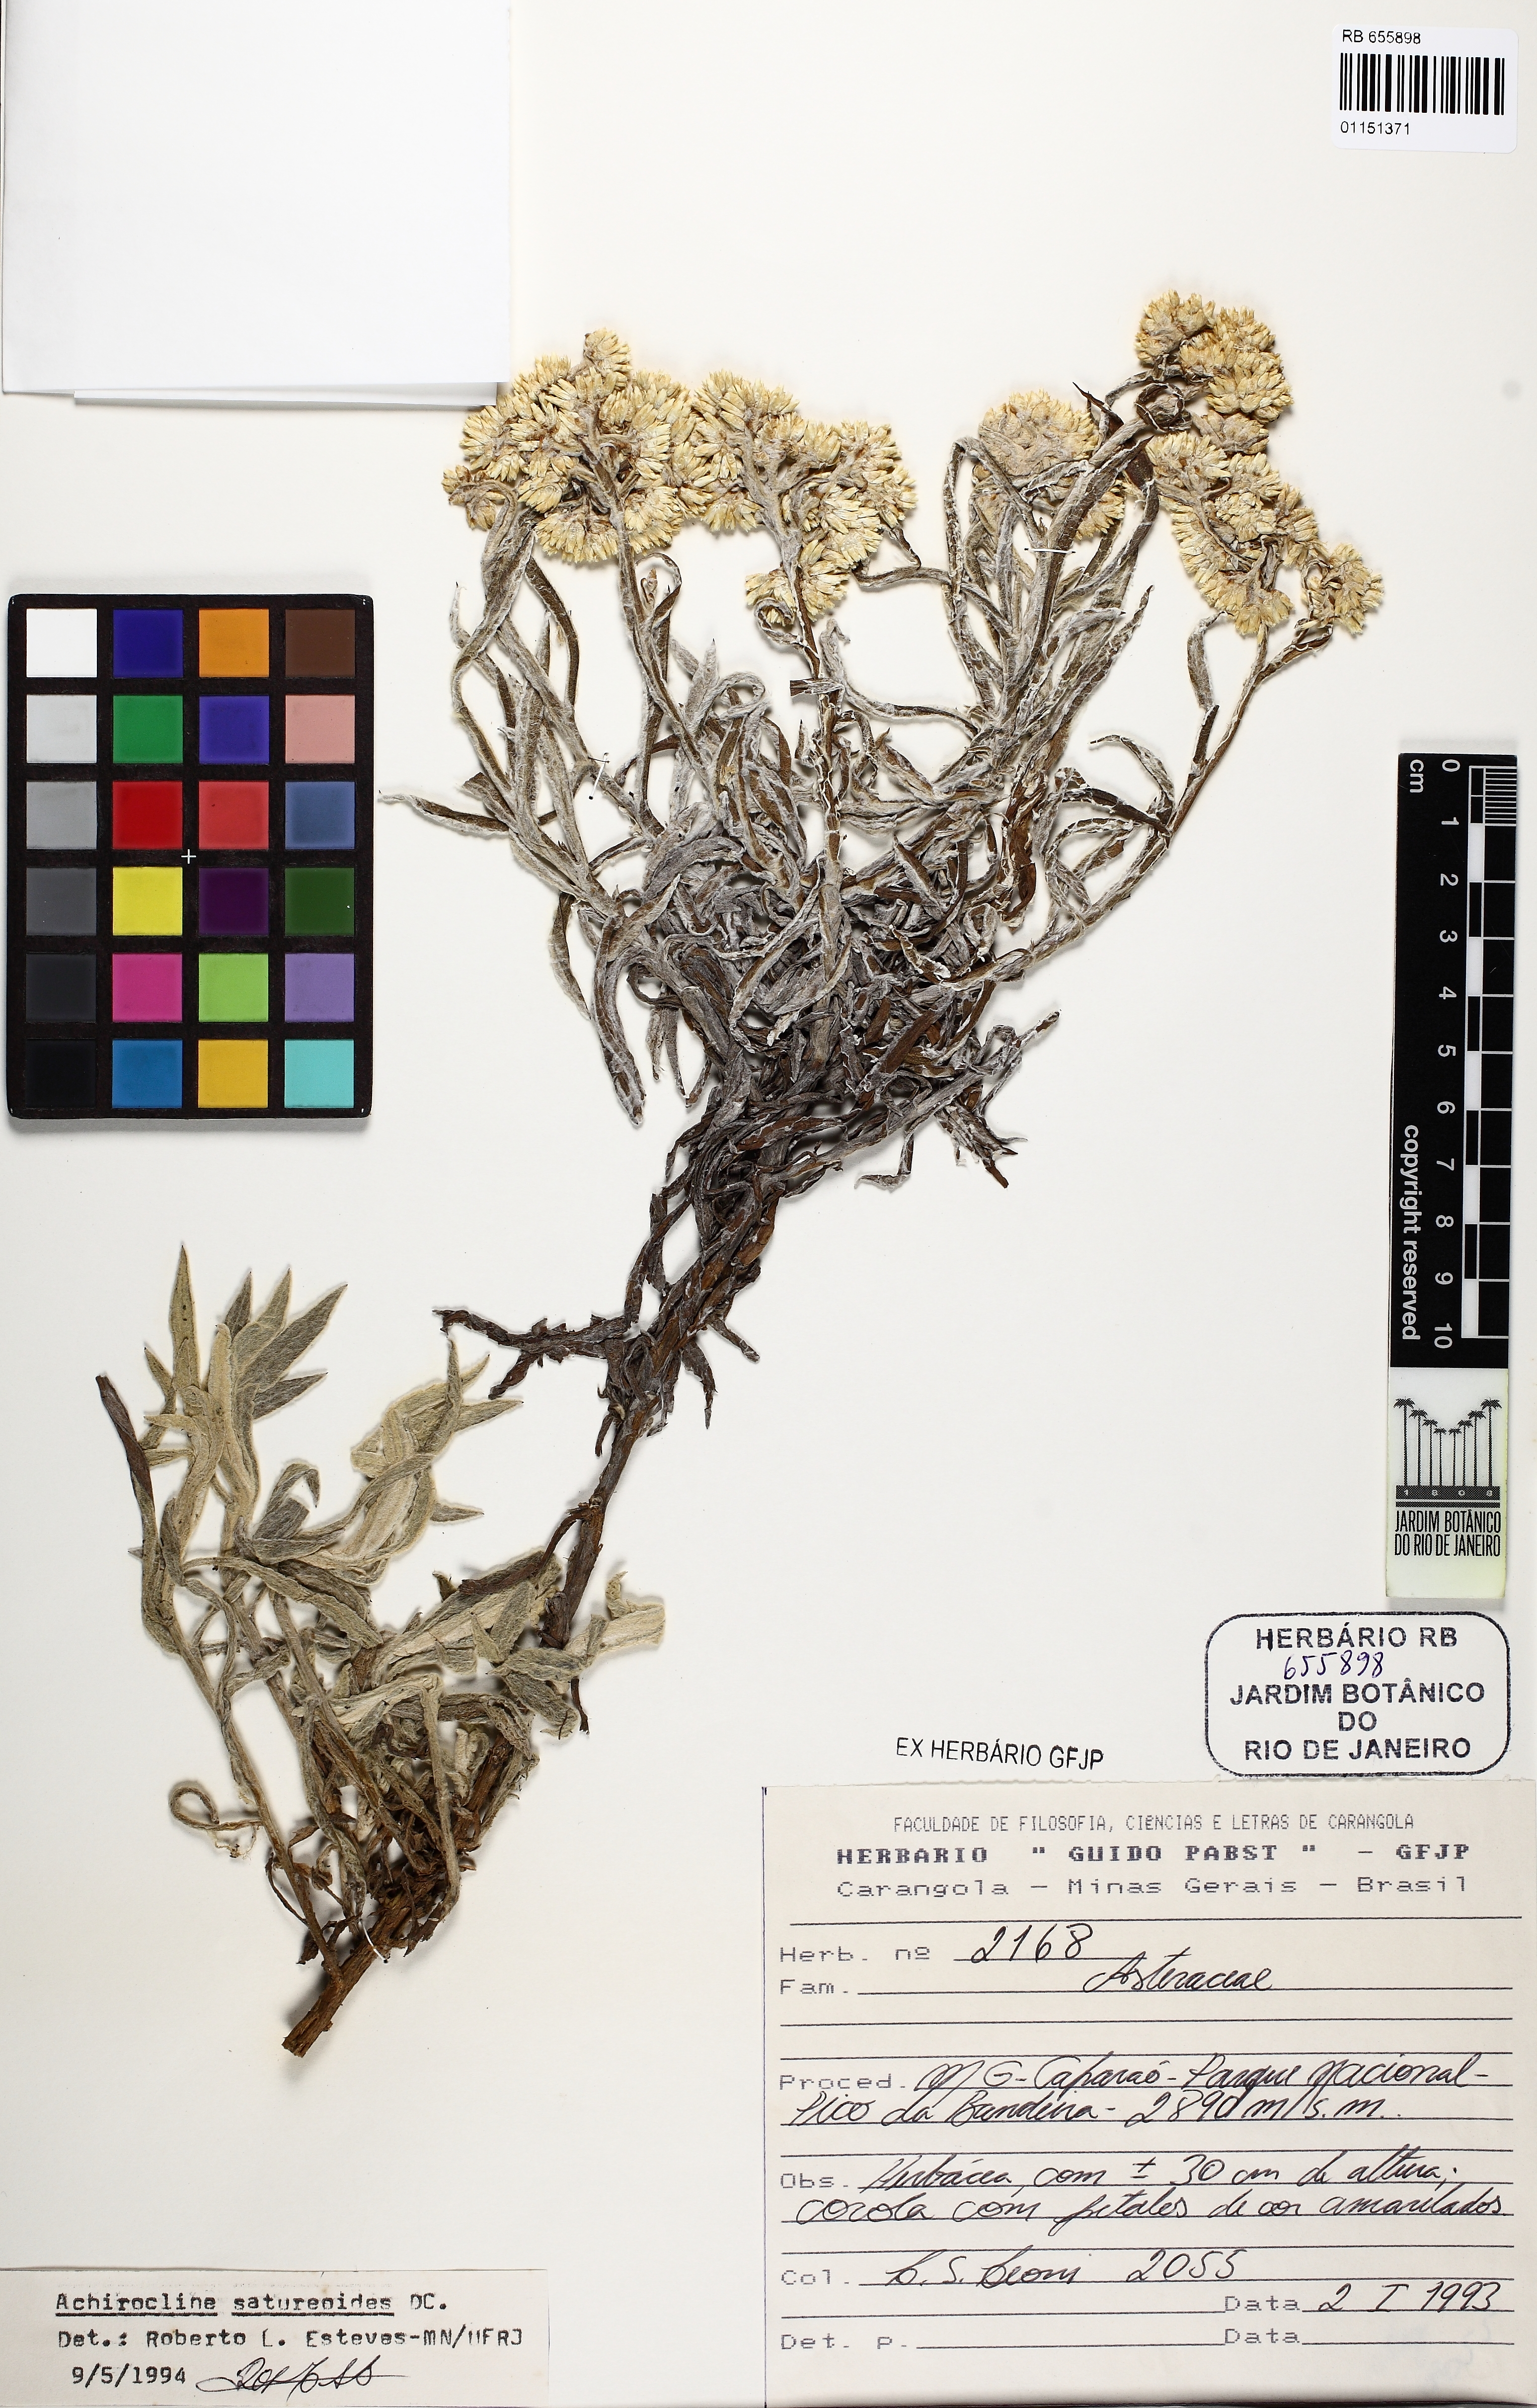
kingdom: Plantae
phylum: Tracheophyta
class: Magnoliopsida
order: Asterales
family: Asteraceae
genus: Achyrocline
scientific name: Achyrocline satureioides
